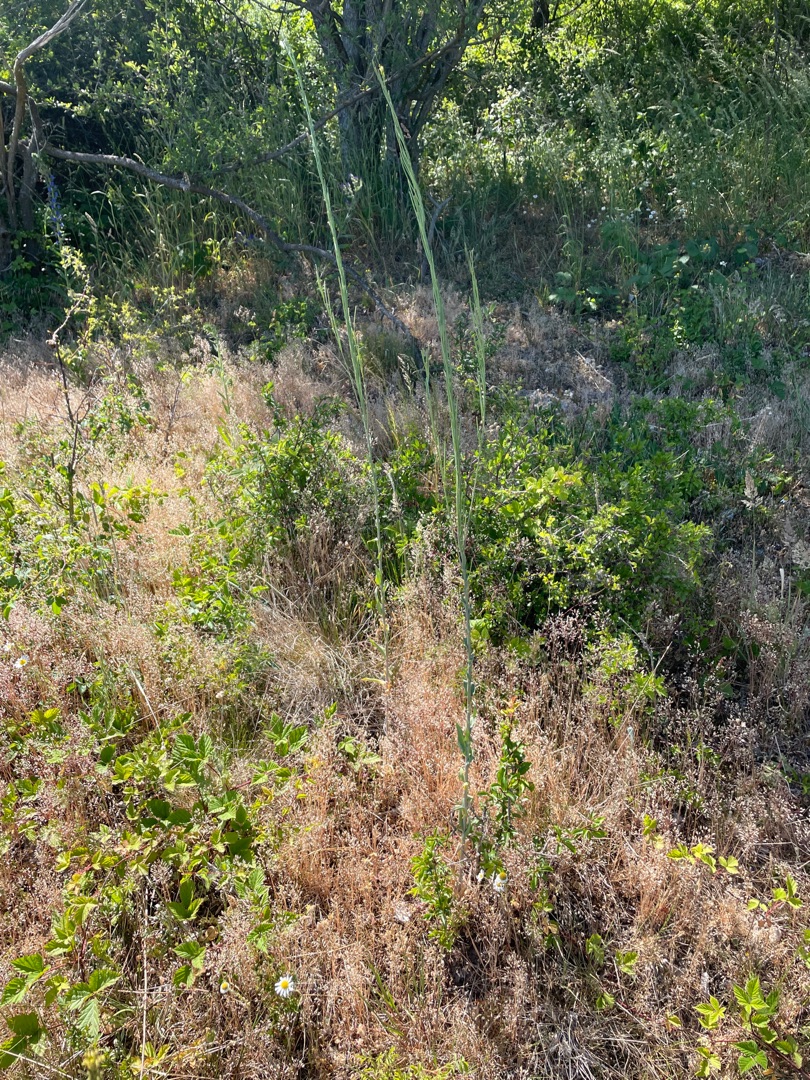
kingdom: Plantae
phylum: Tracheophyta
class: Magnoliopsida
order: Brassicales
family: Brassicaceae
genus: Turritis
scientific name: Turritis glabra
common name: Tårnurt
